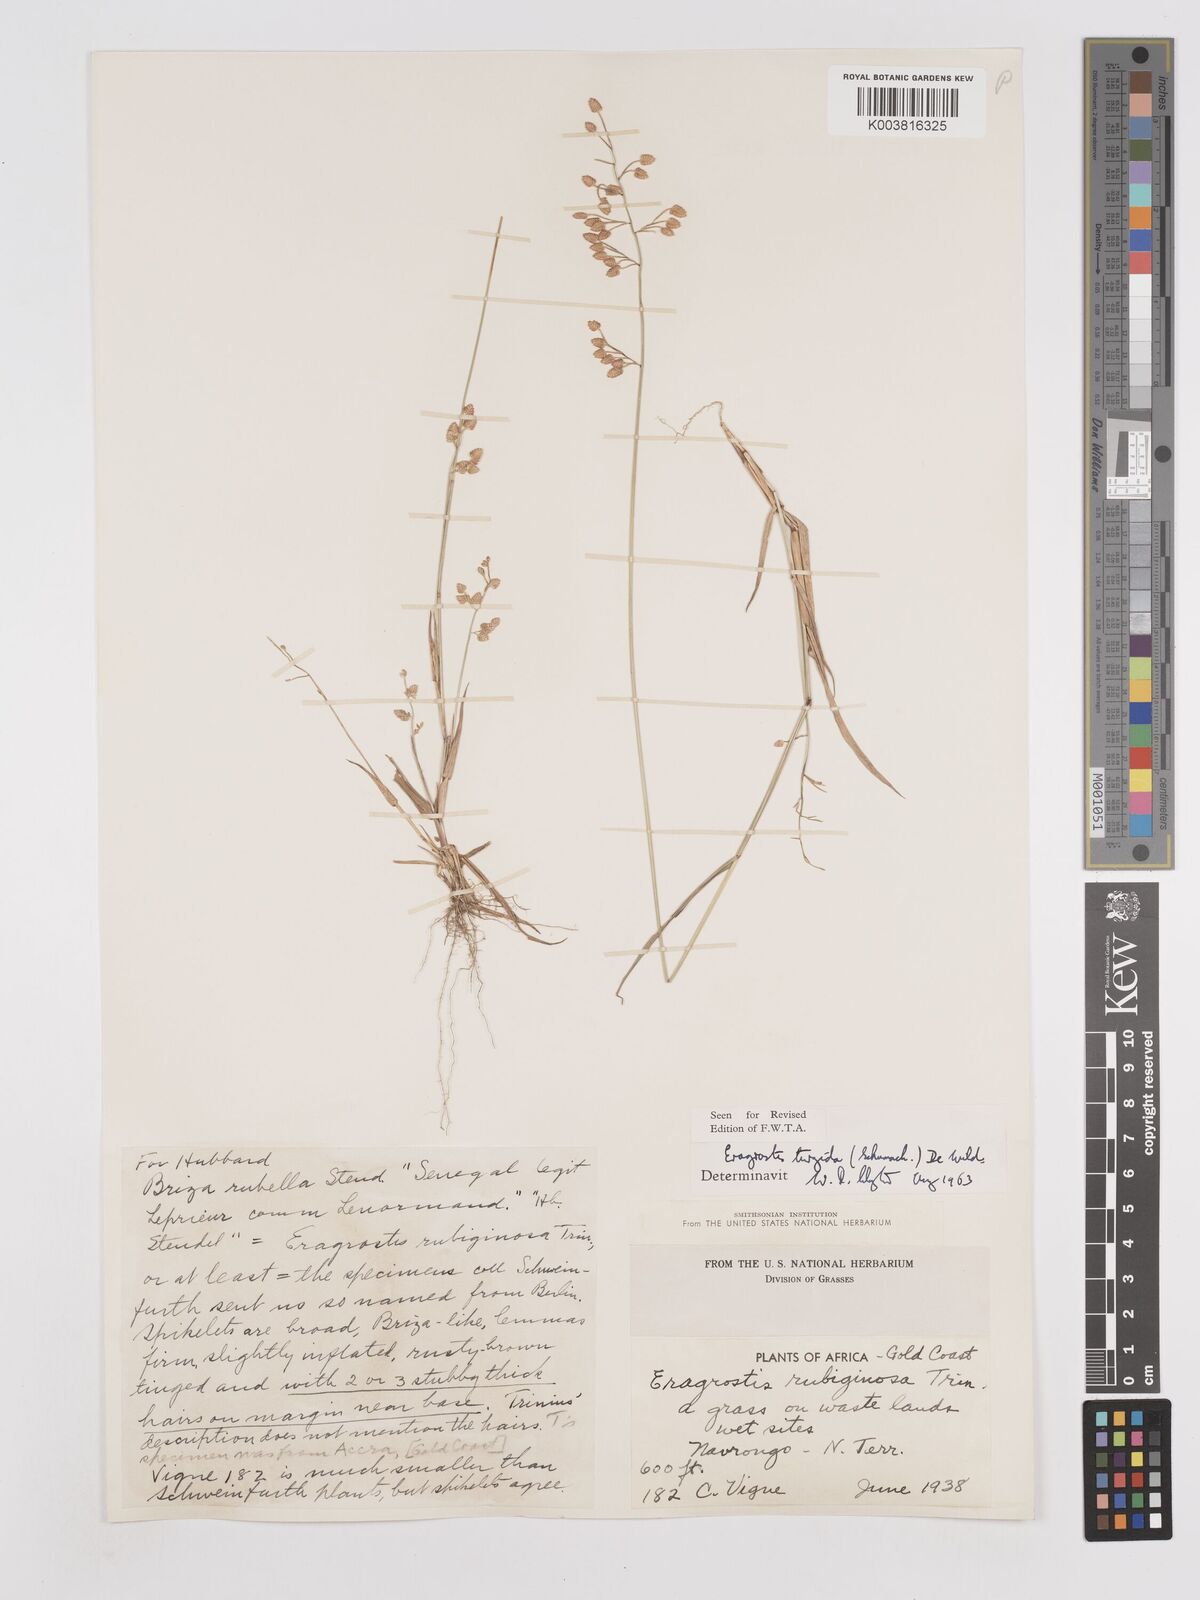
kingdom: Plantae
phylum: Tracheophyta
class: Liliopsida
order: Poales
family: Poaceae
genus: Eragrostis
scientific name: Eragrostis turgida
